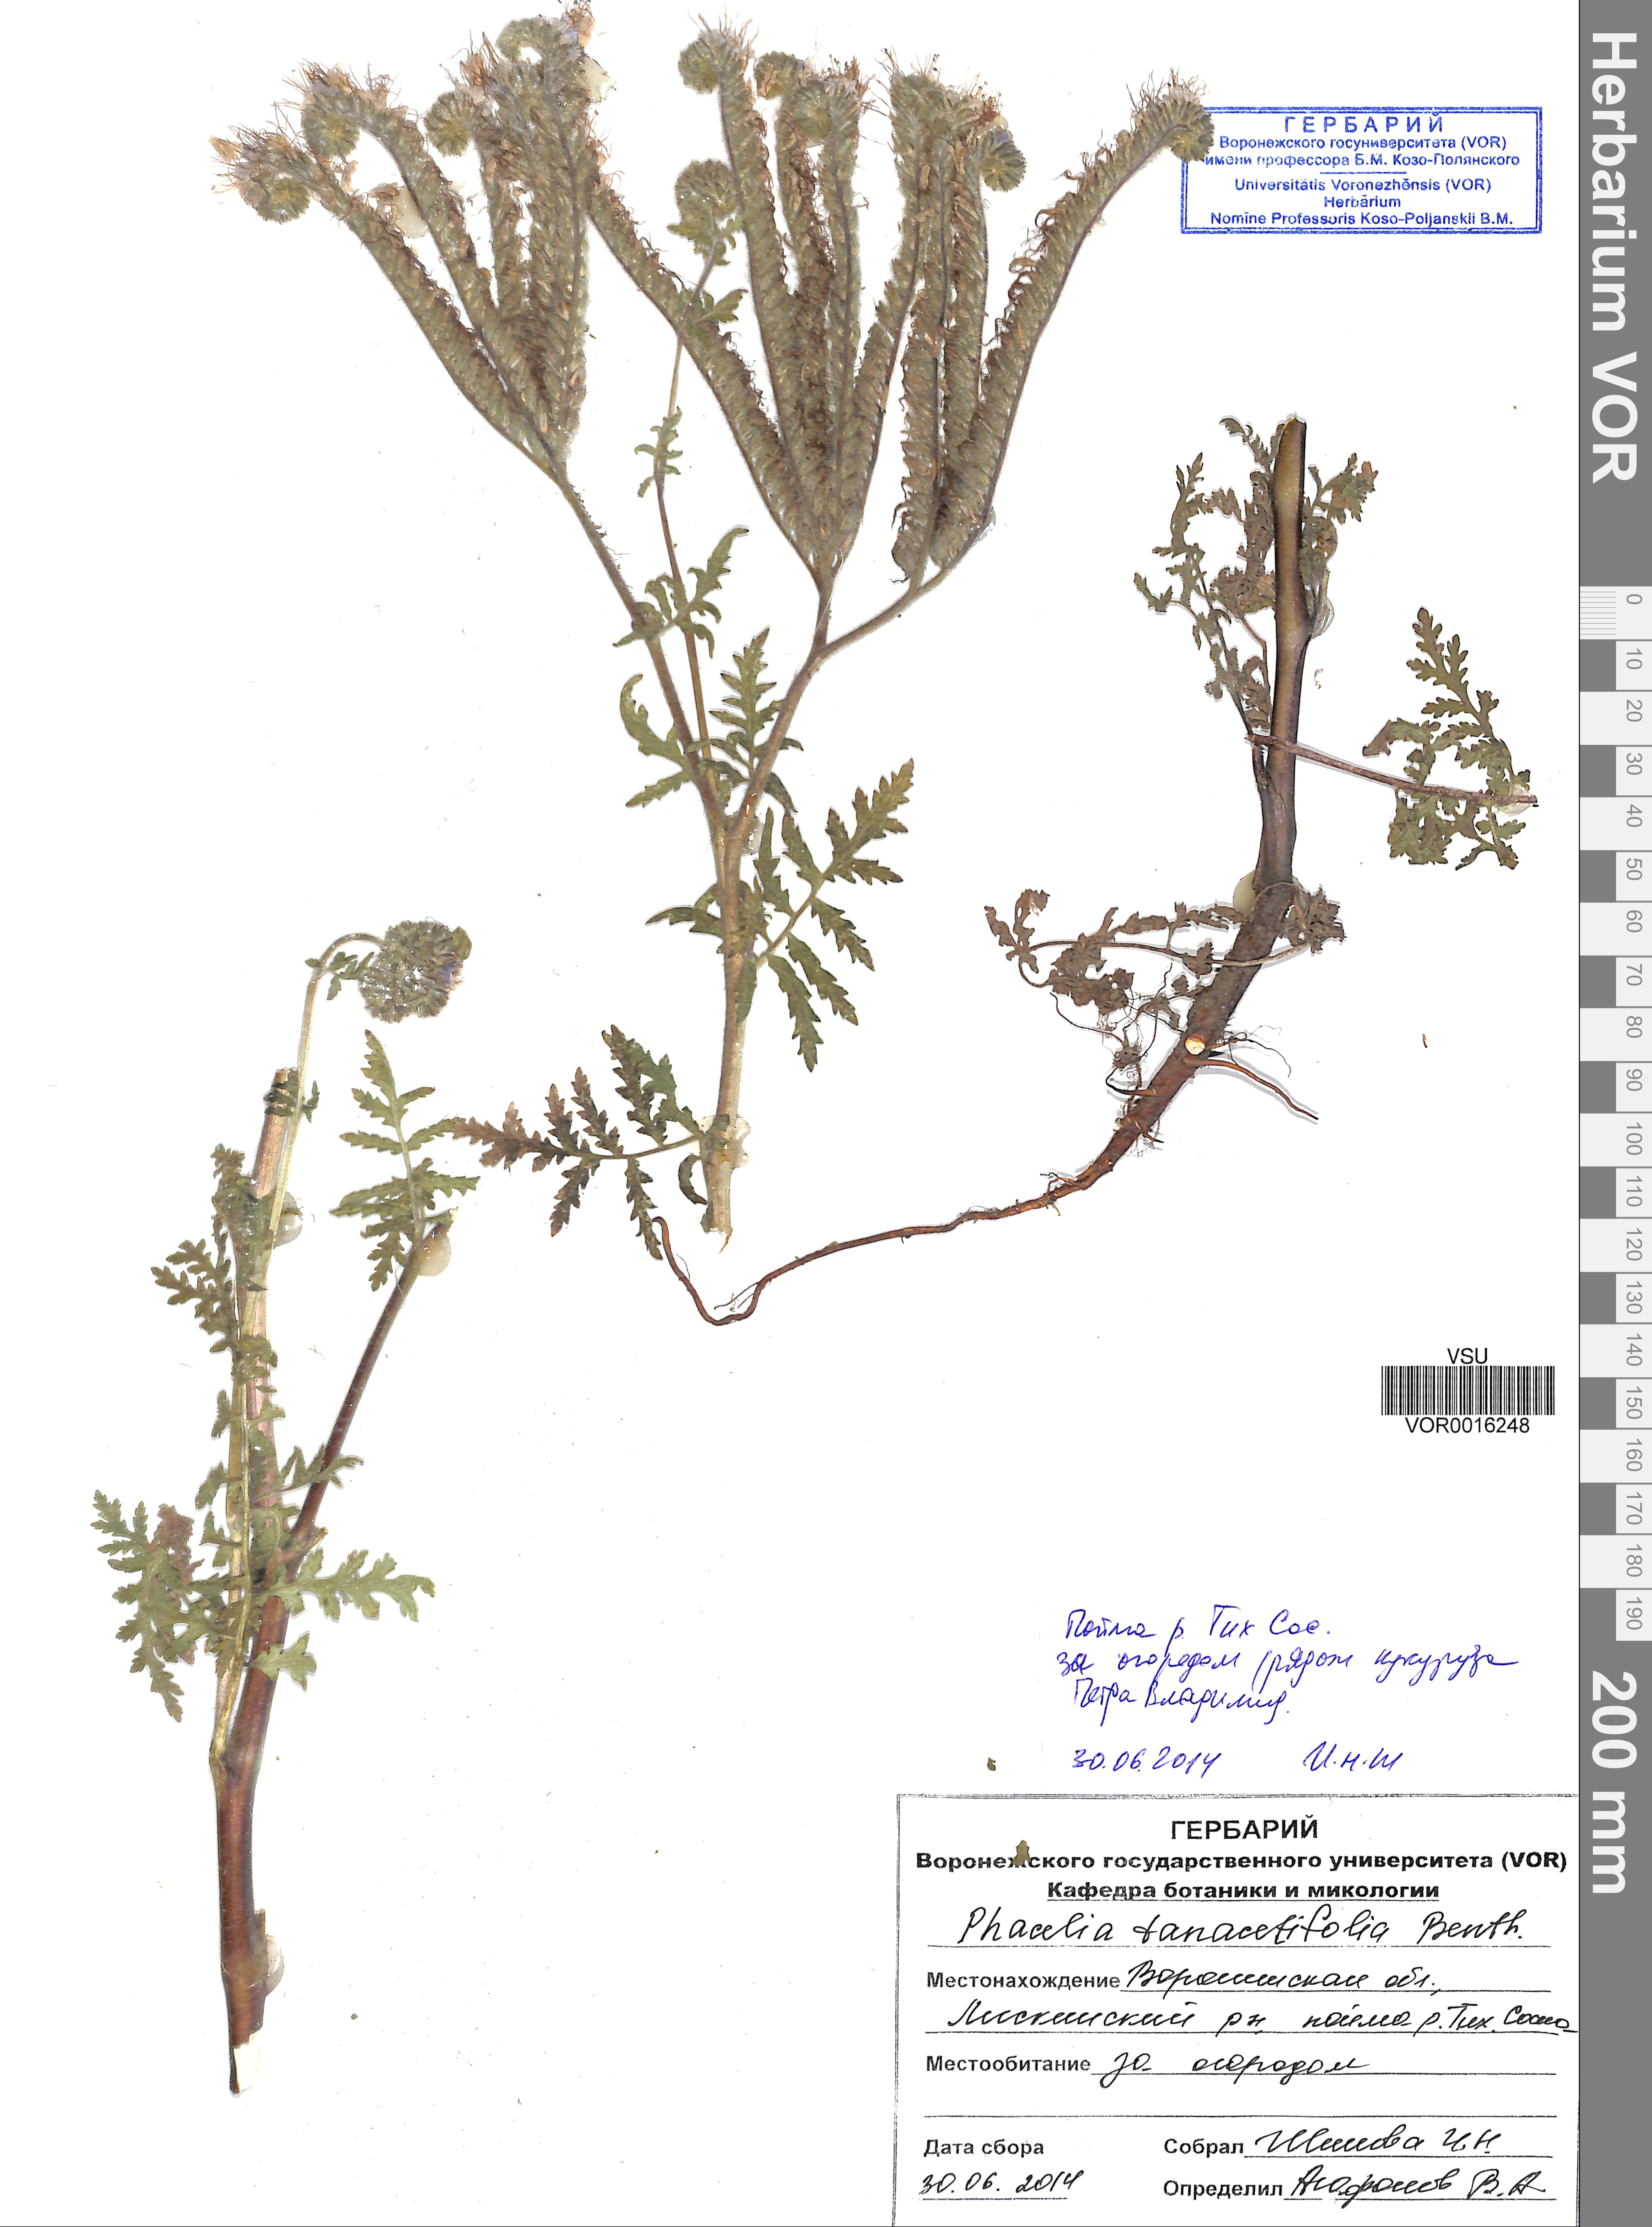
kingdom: Plantae
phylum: Tracheophyta
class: Magnoliopsida
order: Boraginales
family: Hydrophyllaceae
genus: Phacelia
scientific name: Phacelia tanacetifolia
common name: Phacelia
